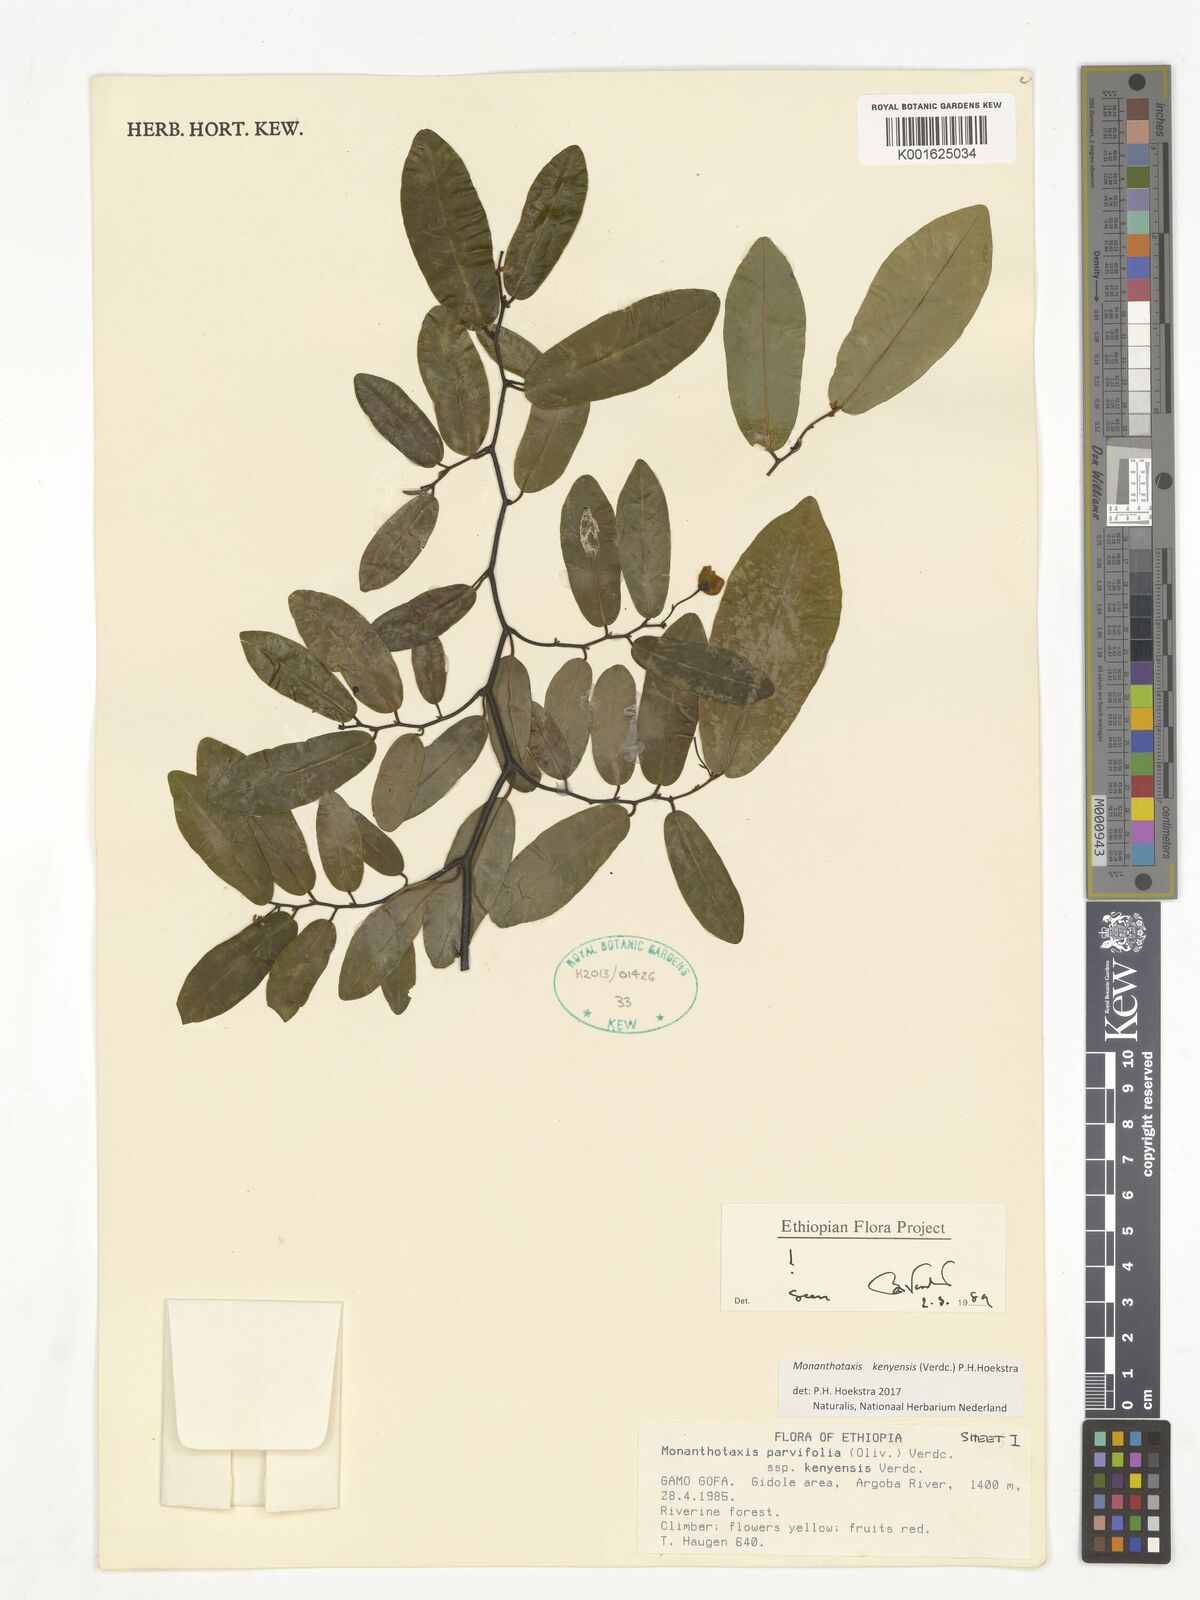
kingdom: Plantae
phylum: Tracheophyta
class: Magnoliopsida
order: Magnoliales
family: Annonaceae
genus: Monanthotaxis
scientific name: Monanthotaxis
